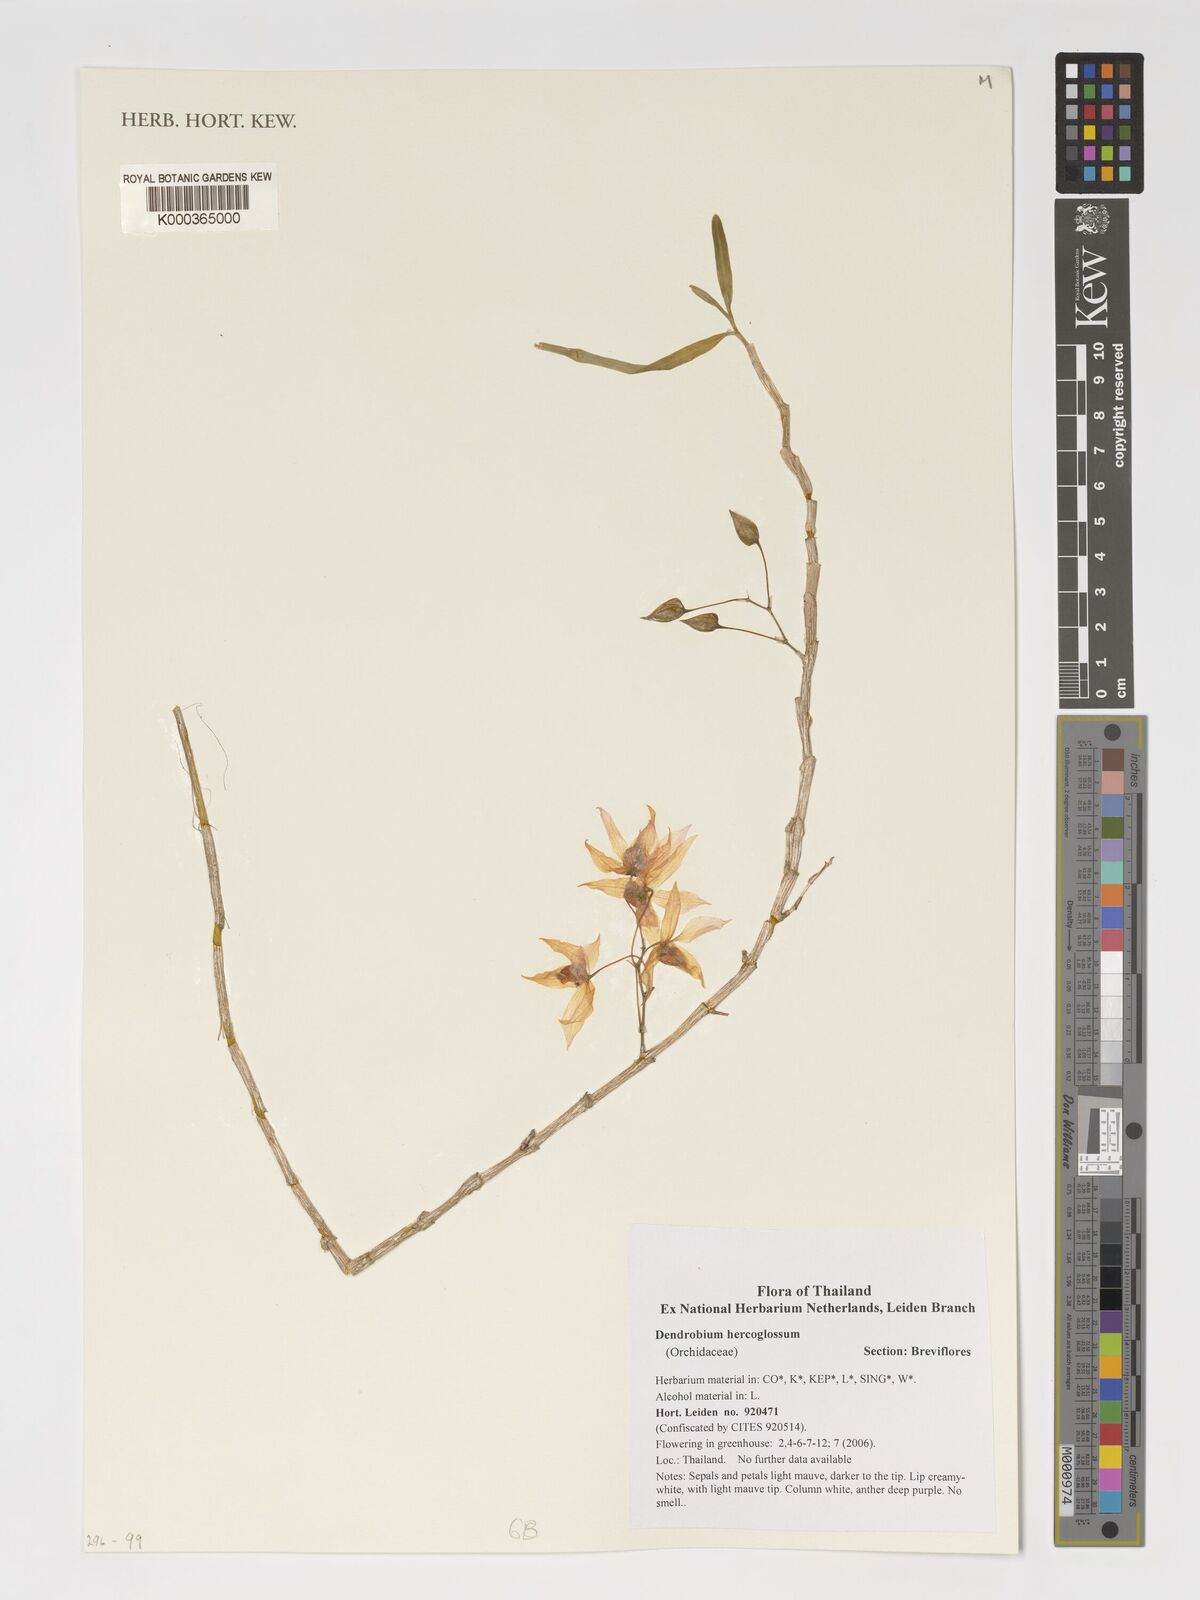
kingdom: Plantae
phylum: Tracheophyta
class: Liliopsida
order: Asparagales
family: Orchidaceae
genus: Dendrobium
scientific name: Dendrobium hercoglossum
